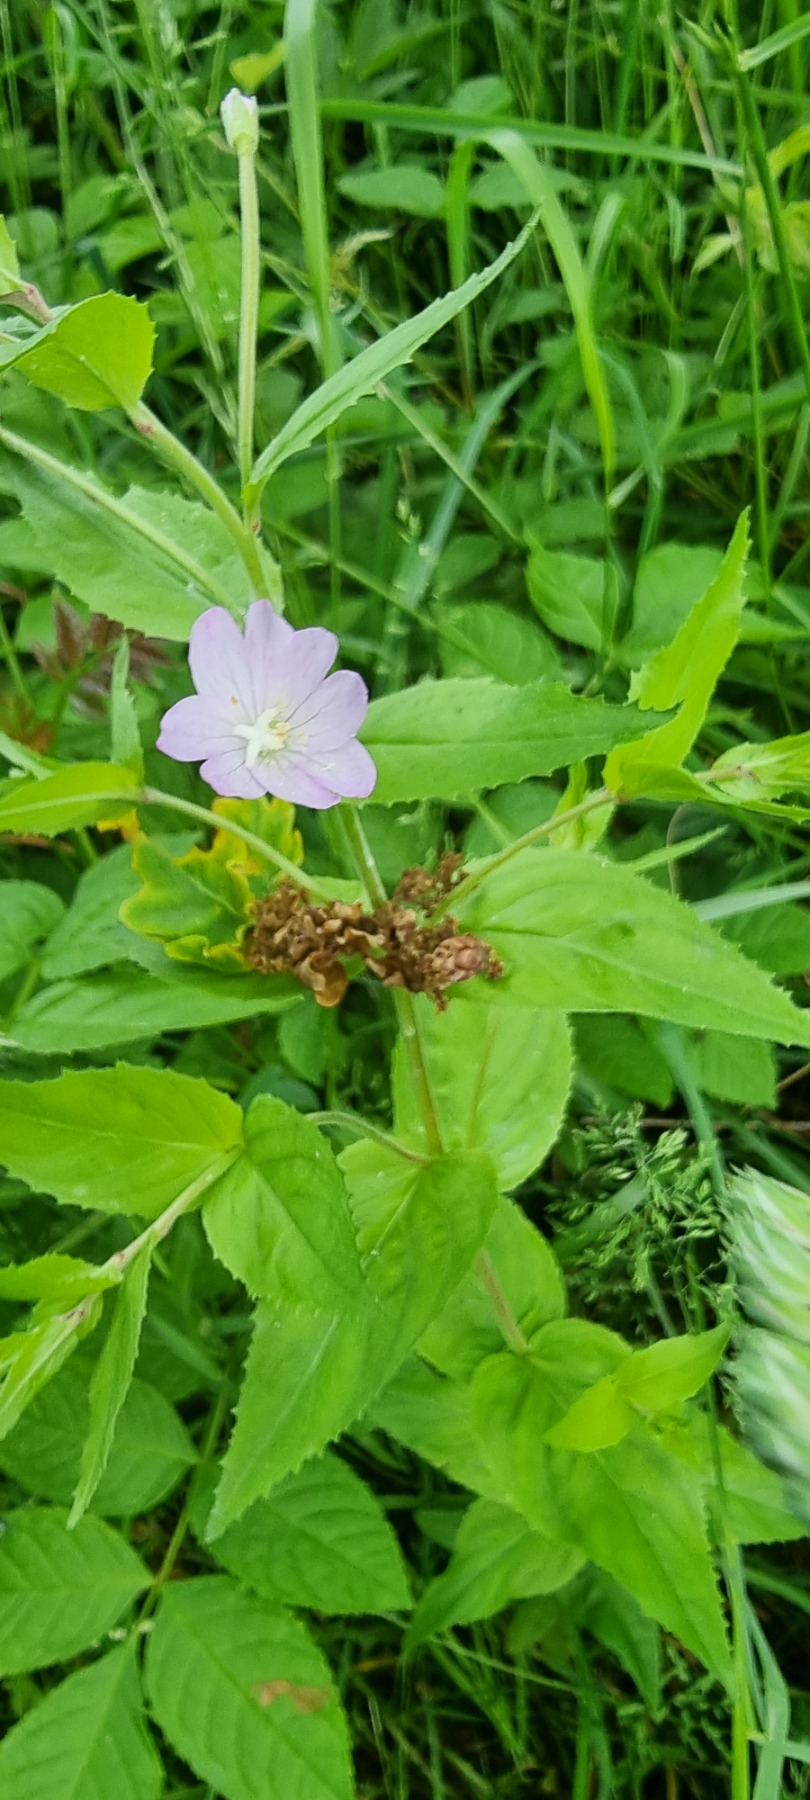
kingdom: Plantae
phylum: Tracheophyta
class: Magnoliopsida
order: Myrtales
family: Onagraceae
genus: Epilobium
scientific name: Epilobium montanum
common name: Glat dueurt
